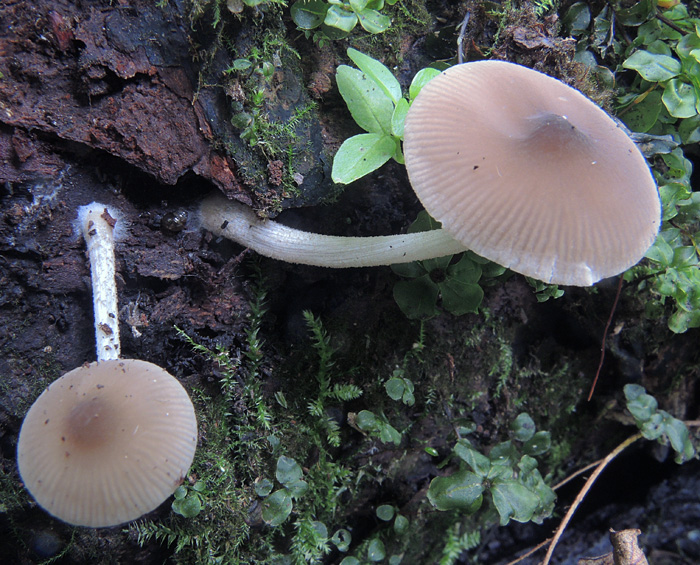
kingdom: Fungi
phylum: Basidiomycota
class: Agaricomycetes
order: Agaricales
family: Pluteaceae
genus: Pluteus
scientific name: Pluteus reisneri
